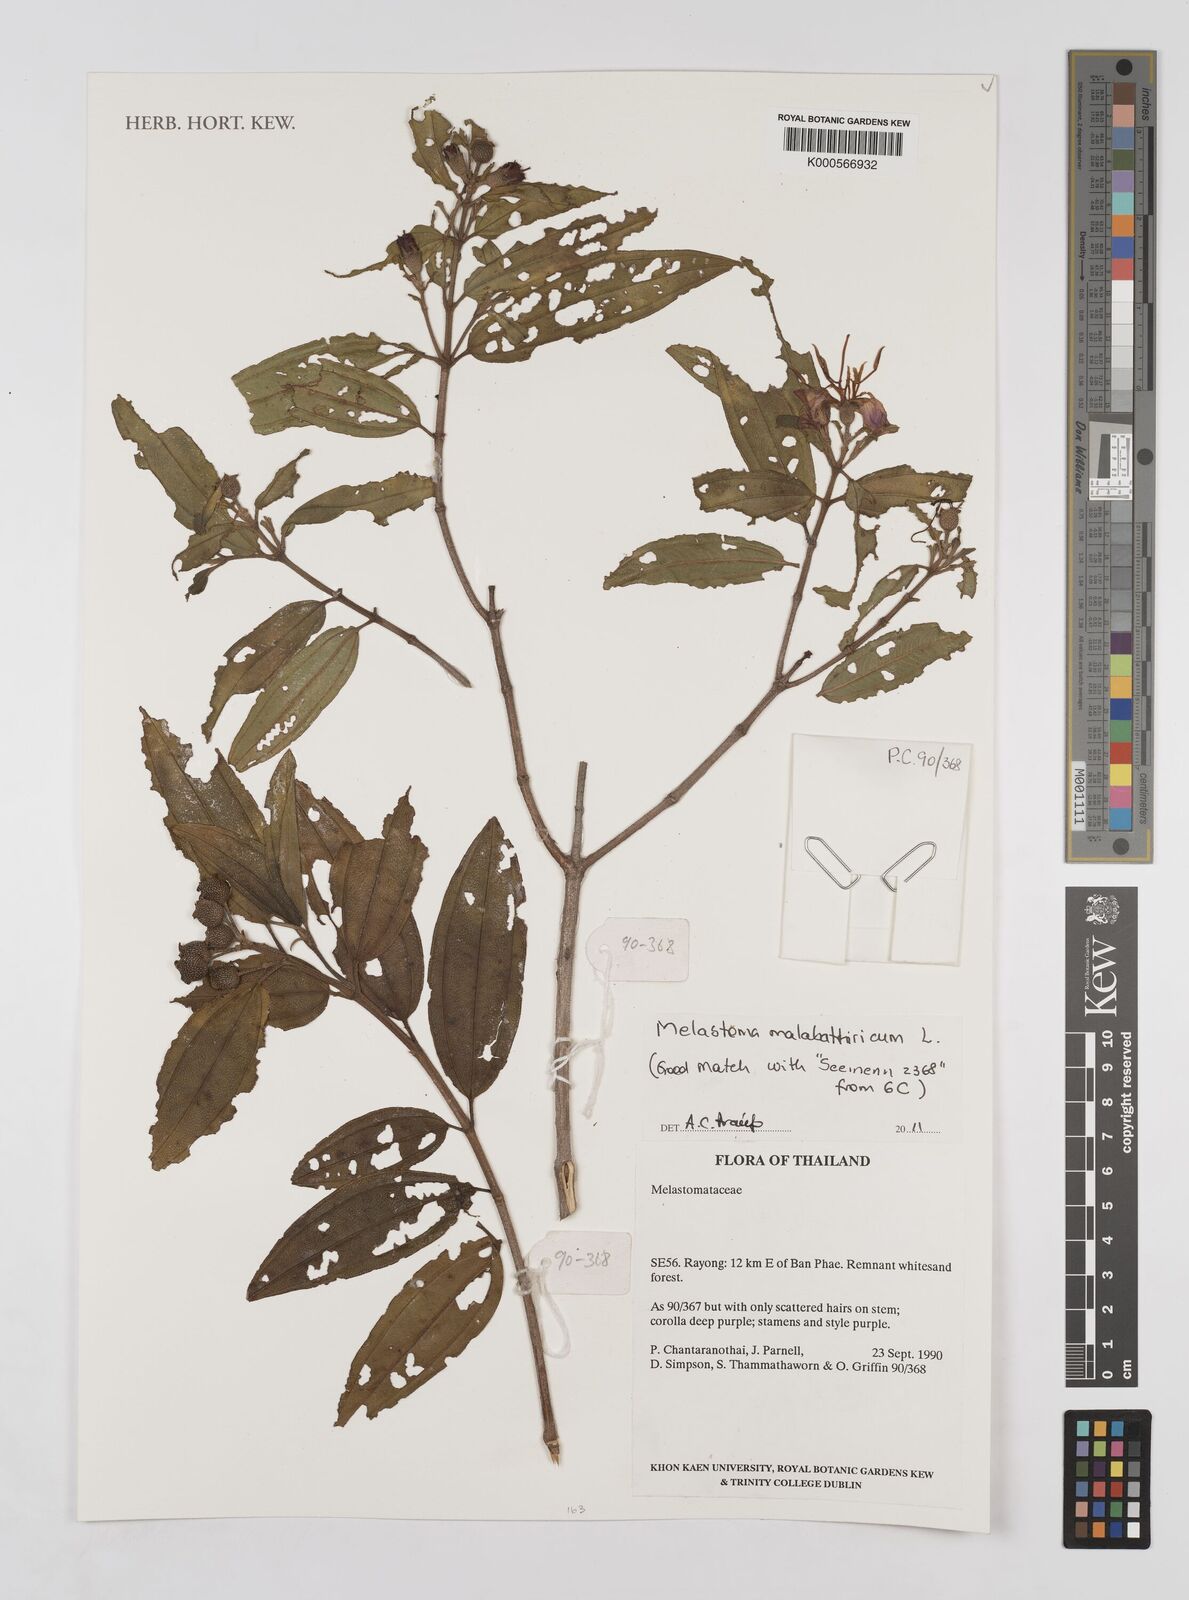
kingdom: Plantae
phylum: Tracheophyta
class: Magnoliopsida
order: Myrtales
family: Melastomataceae
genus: Melastoma
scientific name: Melastoma malabathricum
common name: Indian-rhododendron
